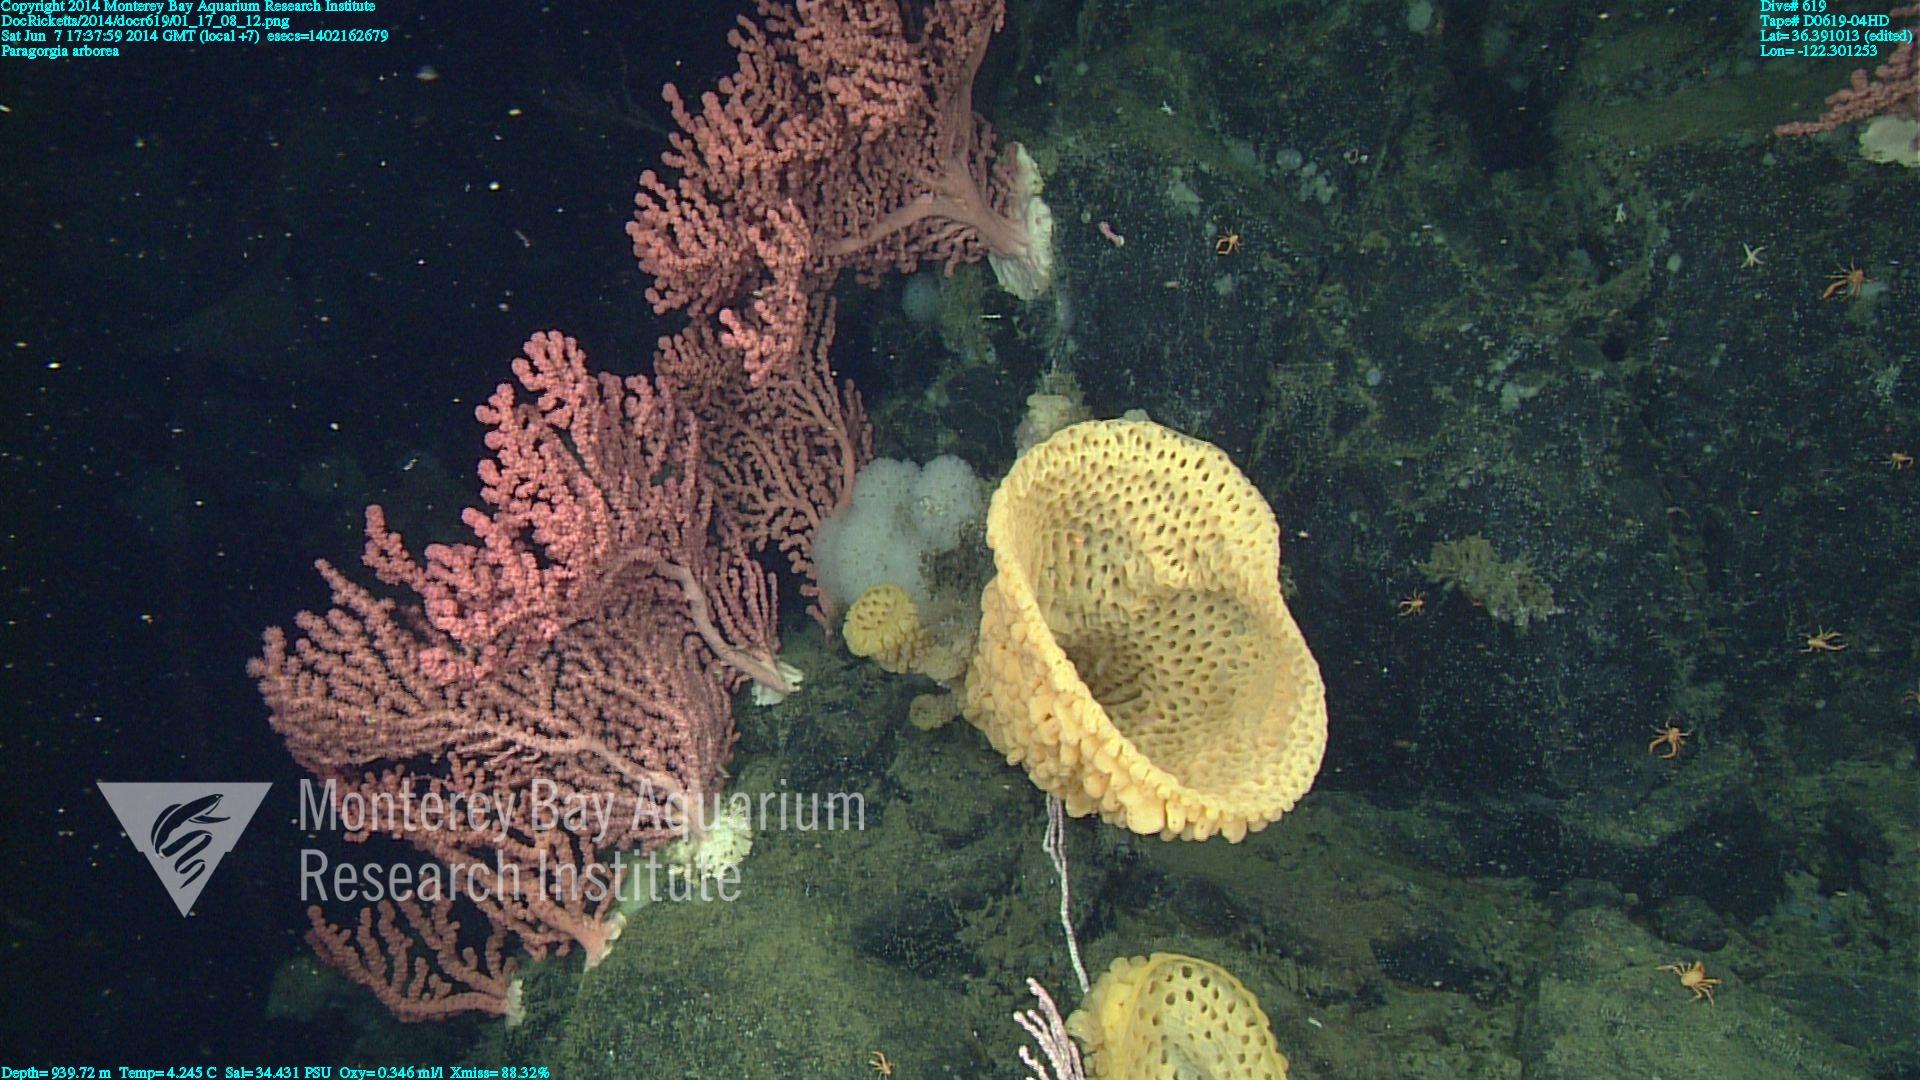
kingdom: Animalia
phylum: Cnidaria
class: Anthozoa
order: Scleralcyonacea
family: Coralliidae
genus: Paragorgia
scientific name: Paragorgia arborea
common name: Bubble gum coral
